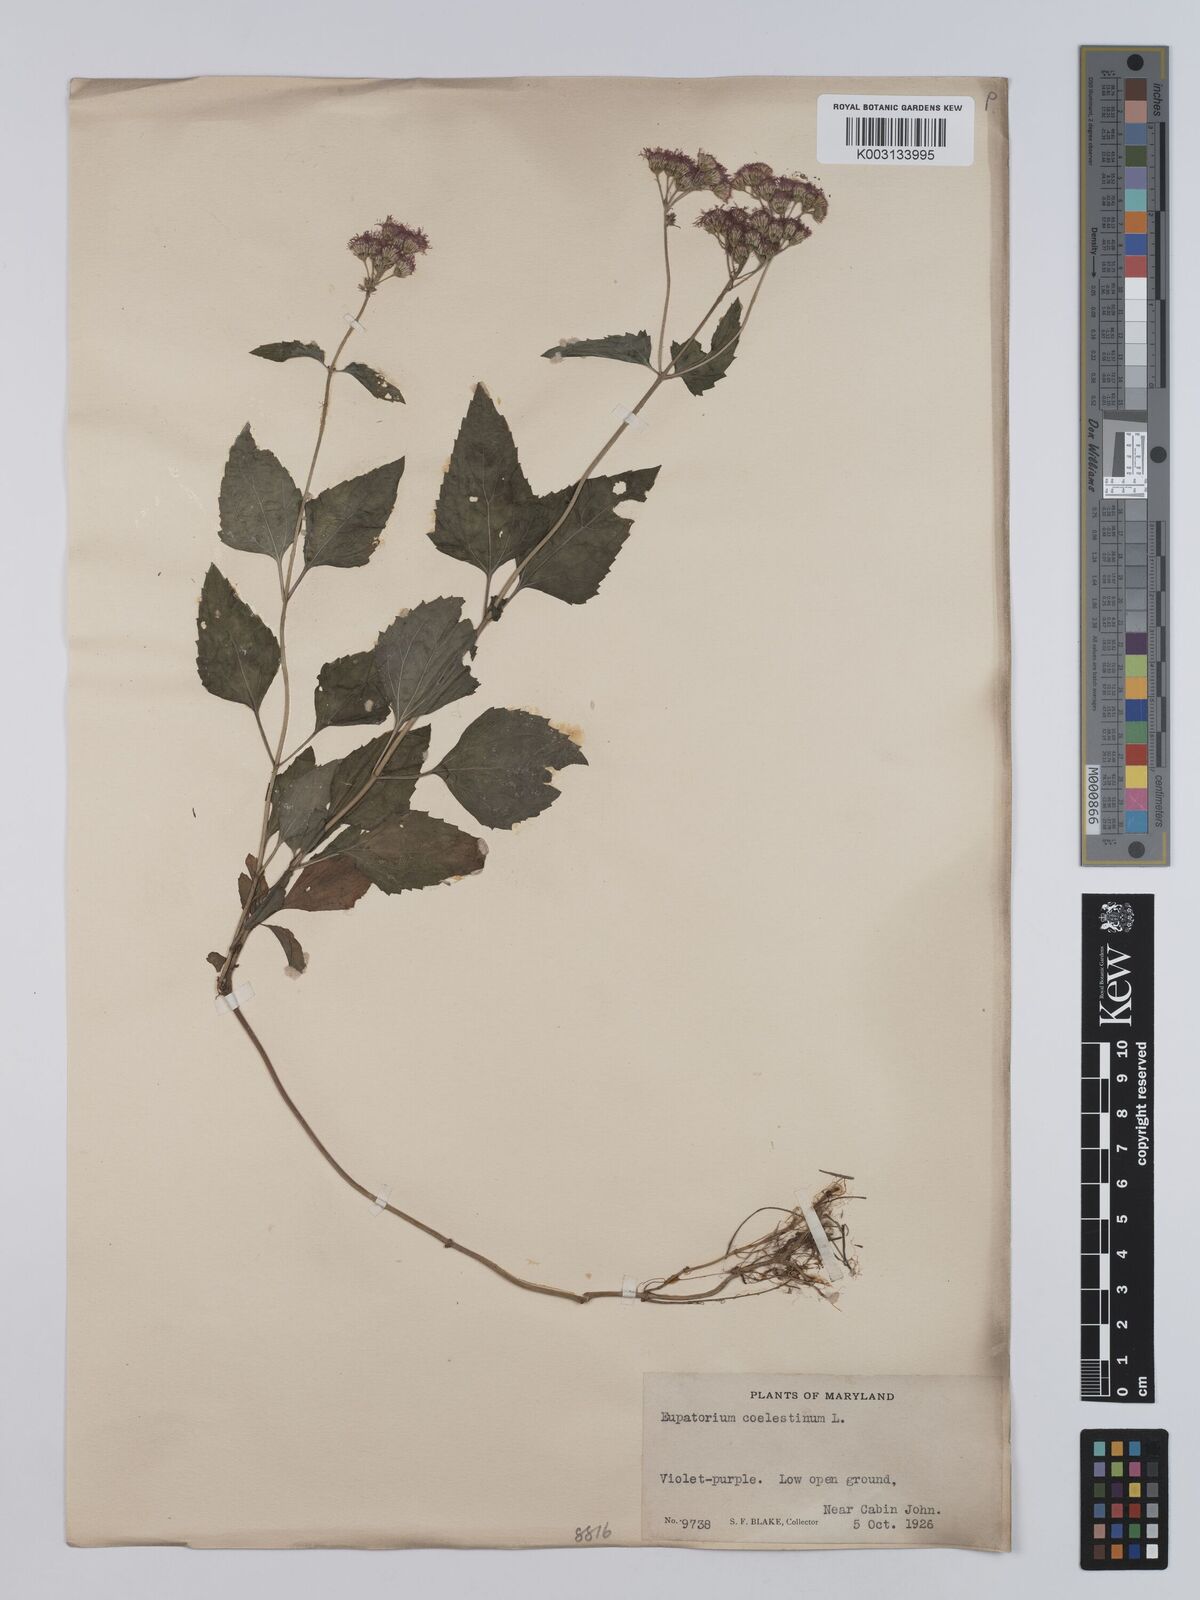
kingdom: Plantae
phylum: Tracheophyta
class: Magnoliopsida
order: Asterales
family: Asteraceae
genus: Conoclinium
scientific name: Conoclinium coelestinum
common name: Blue mistflower
